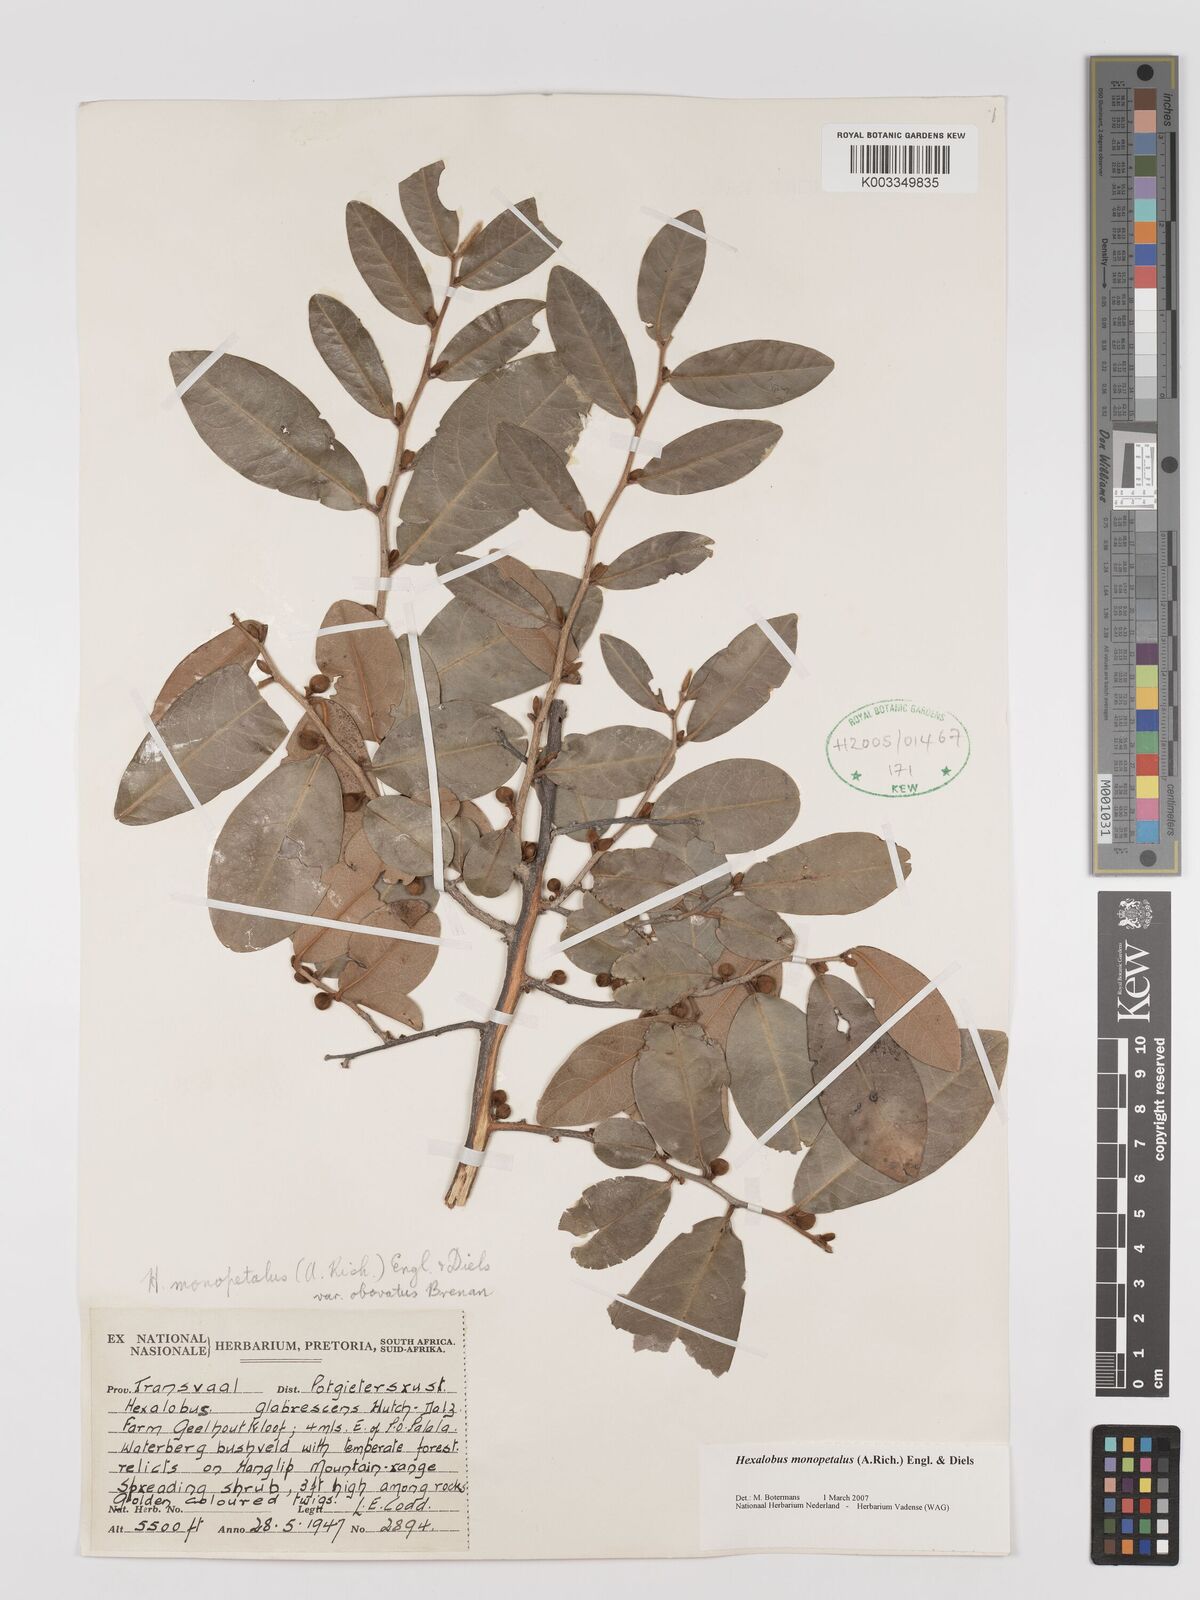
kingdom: Plantae
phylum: Tracheophyta
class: Magnoliopsida
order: Magnoliales
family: Annonaceae
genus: Hexalobus
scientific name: Hexalobus monopetalus
